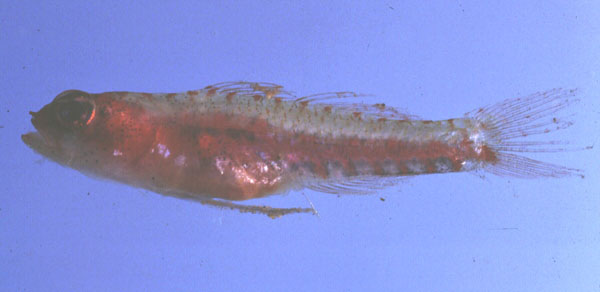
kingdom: Animalia
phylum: Chordata
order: Perciformes
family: Gobiidae
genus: Eviota
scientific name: Eviota sigillata
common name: Seven-figure pygmy goby
